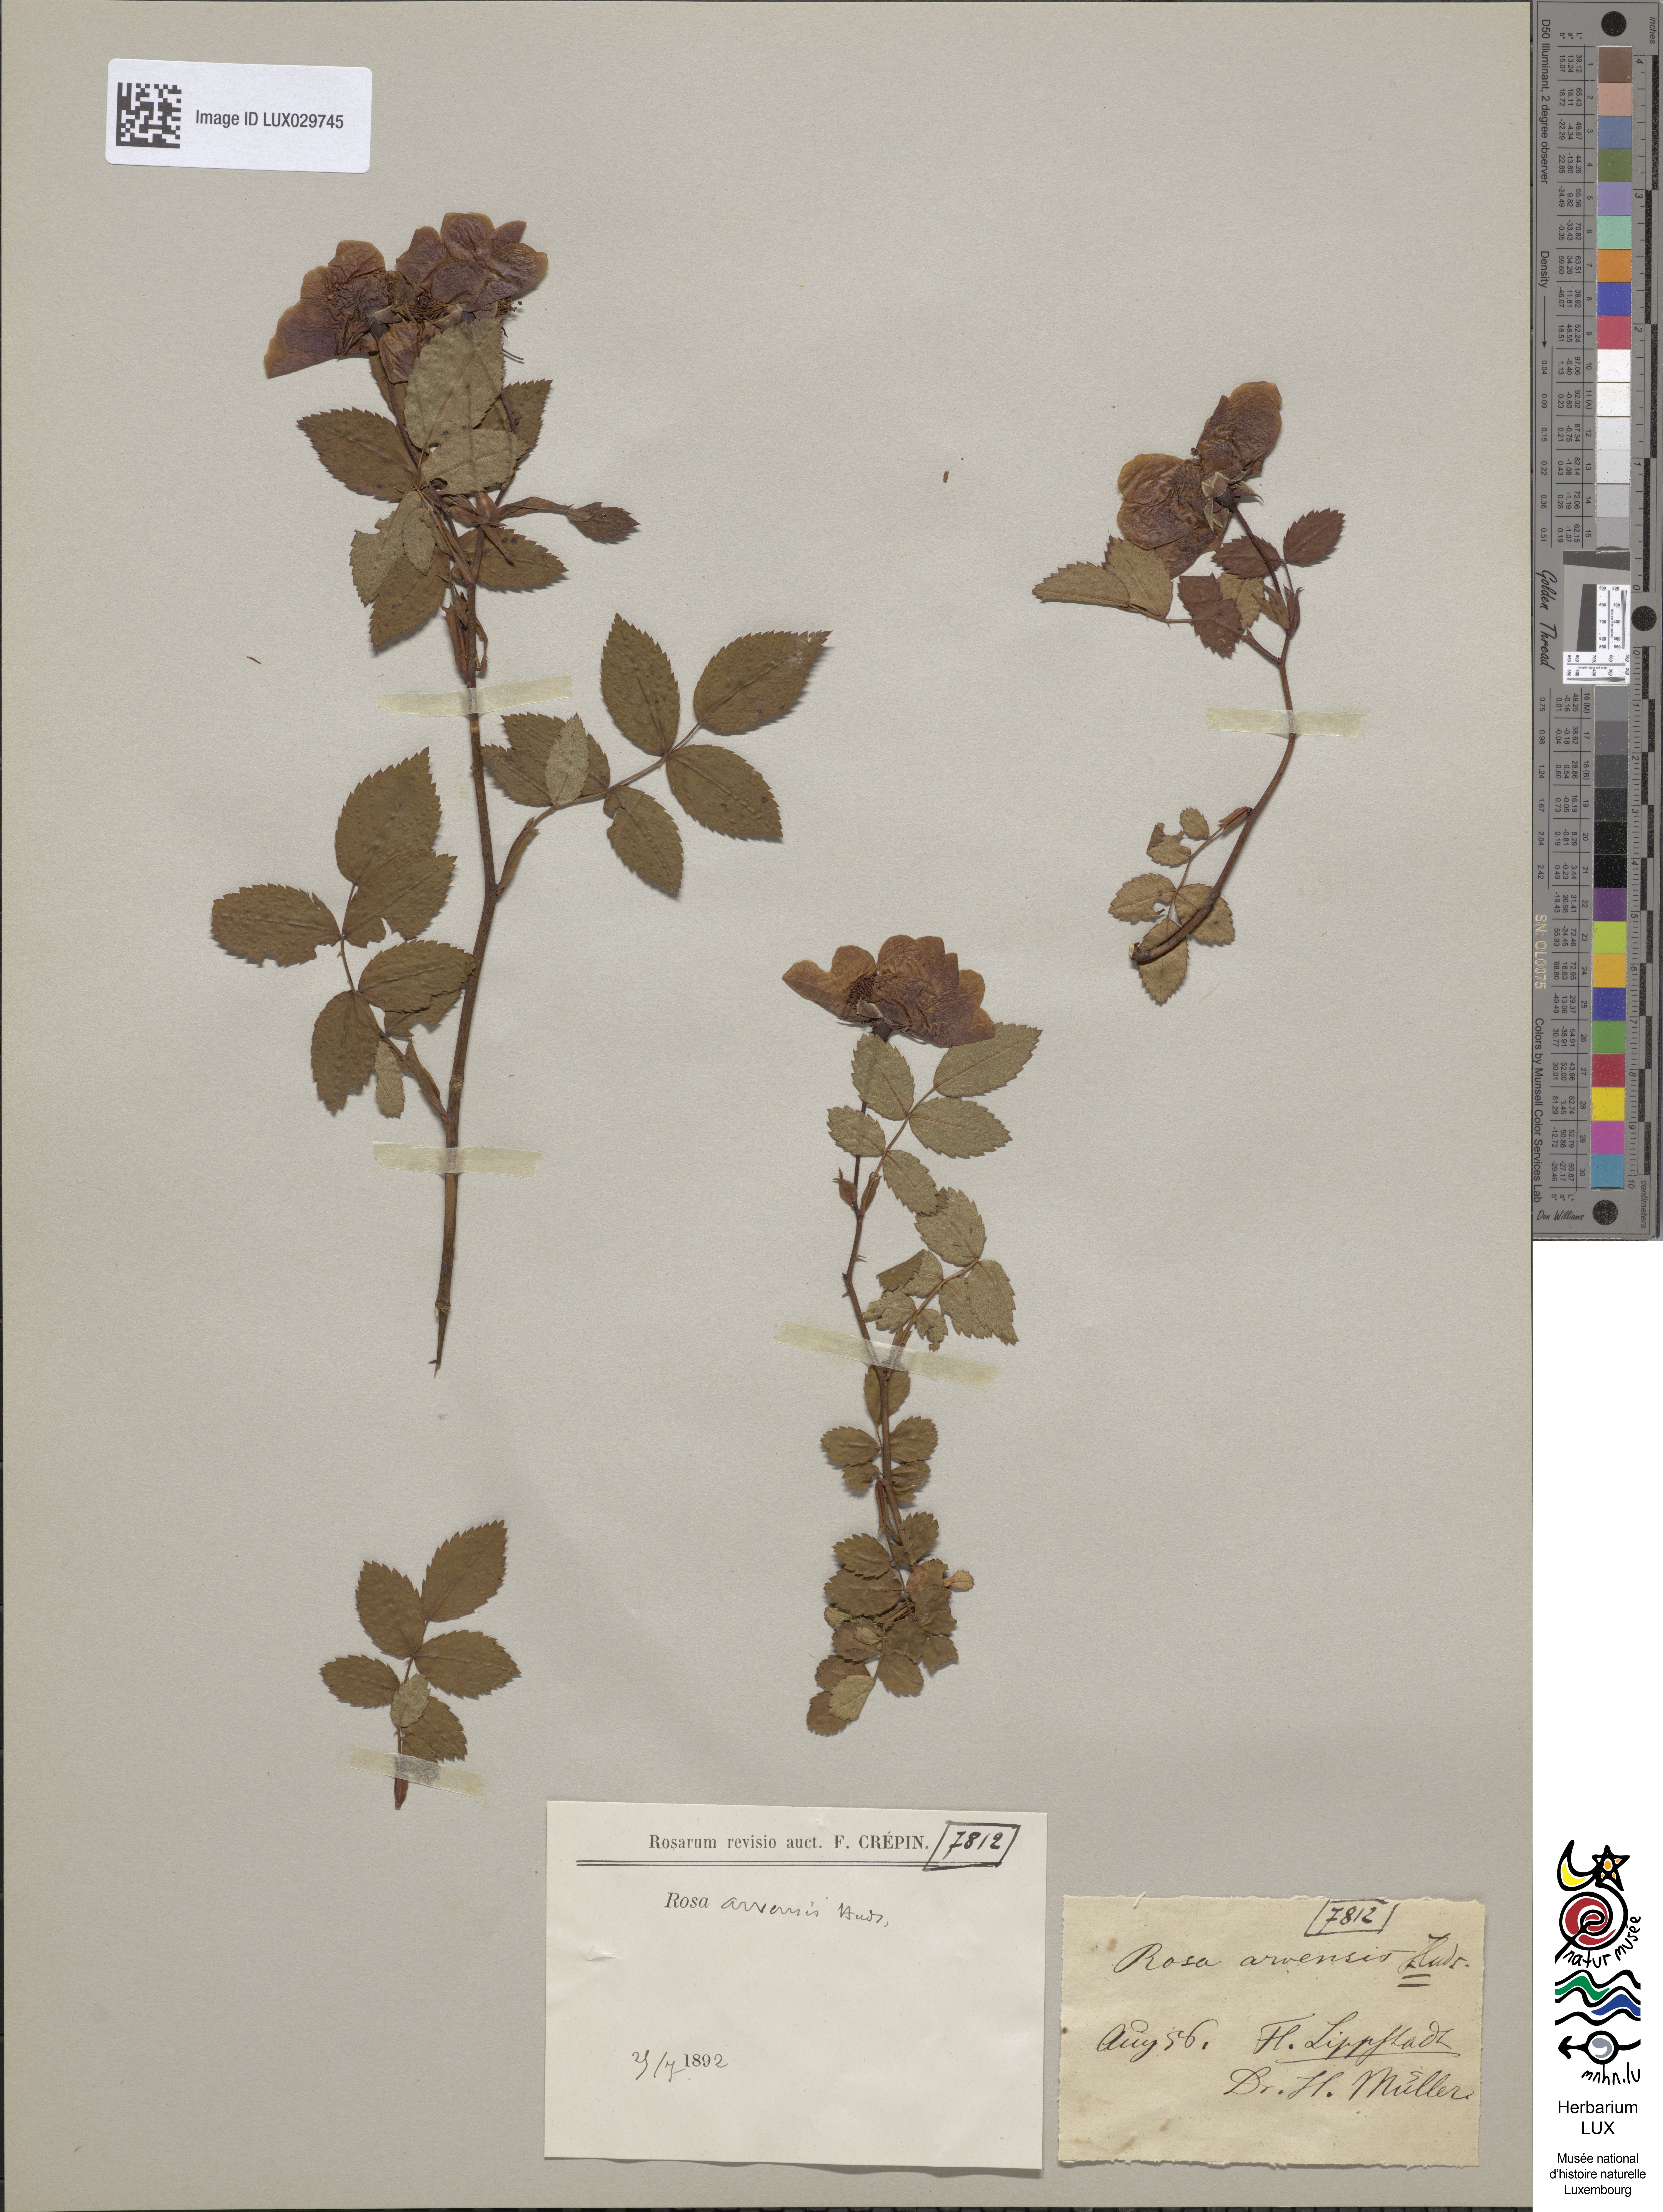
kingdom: Plantae
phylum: Tracheophyta
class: Magnoliopsida
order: Rosales
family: Rosaceae
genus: Rosa
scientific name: Rosa arvensis
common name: Field rose
